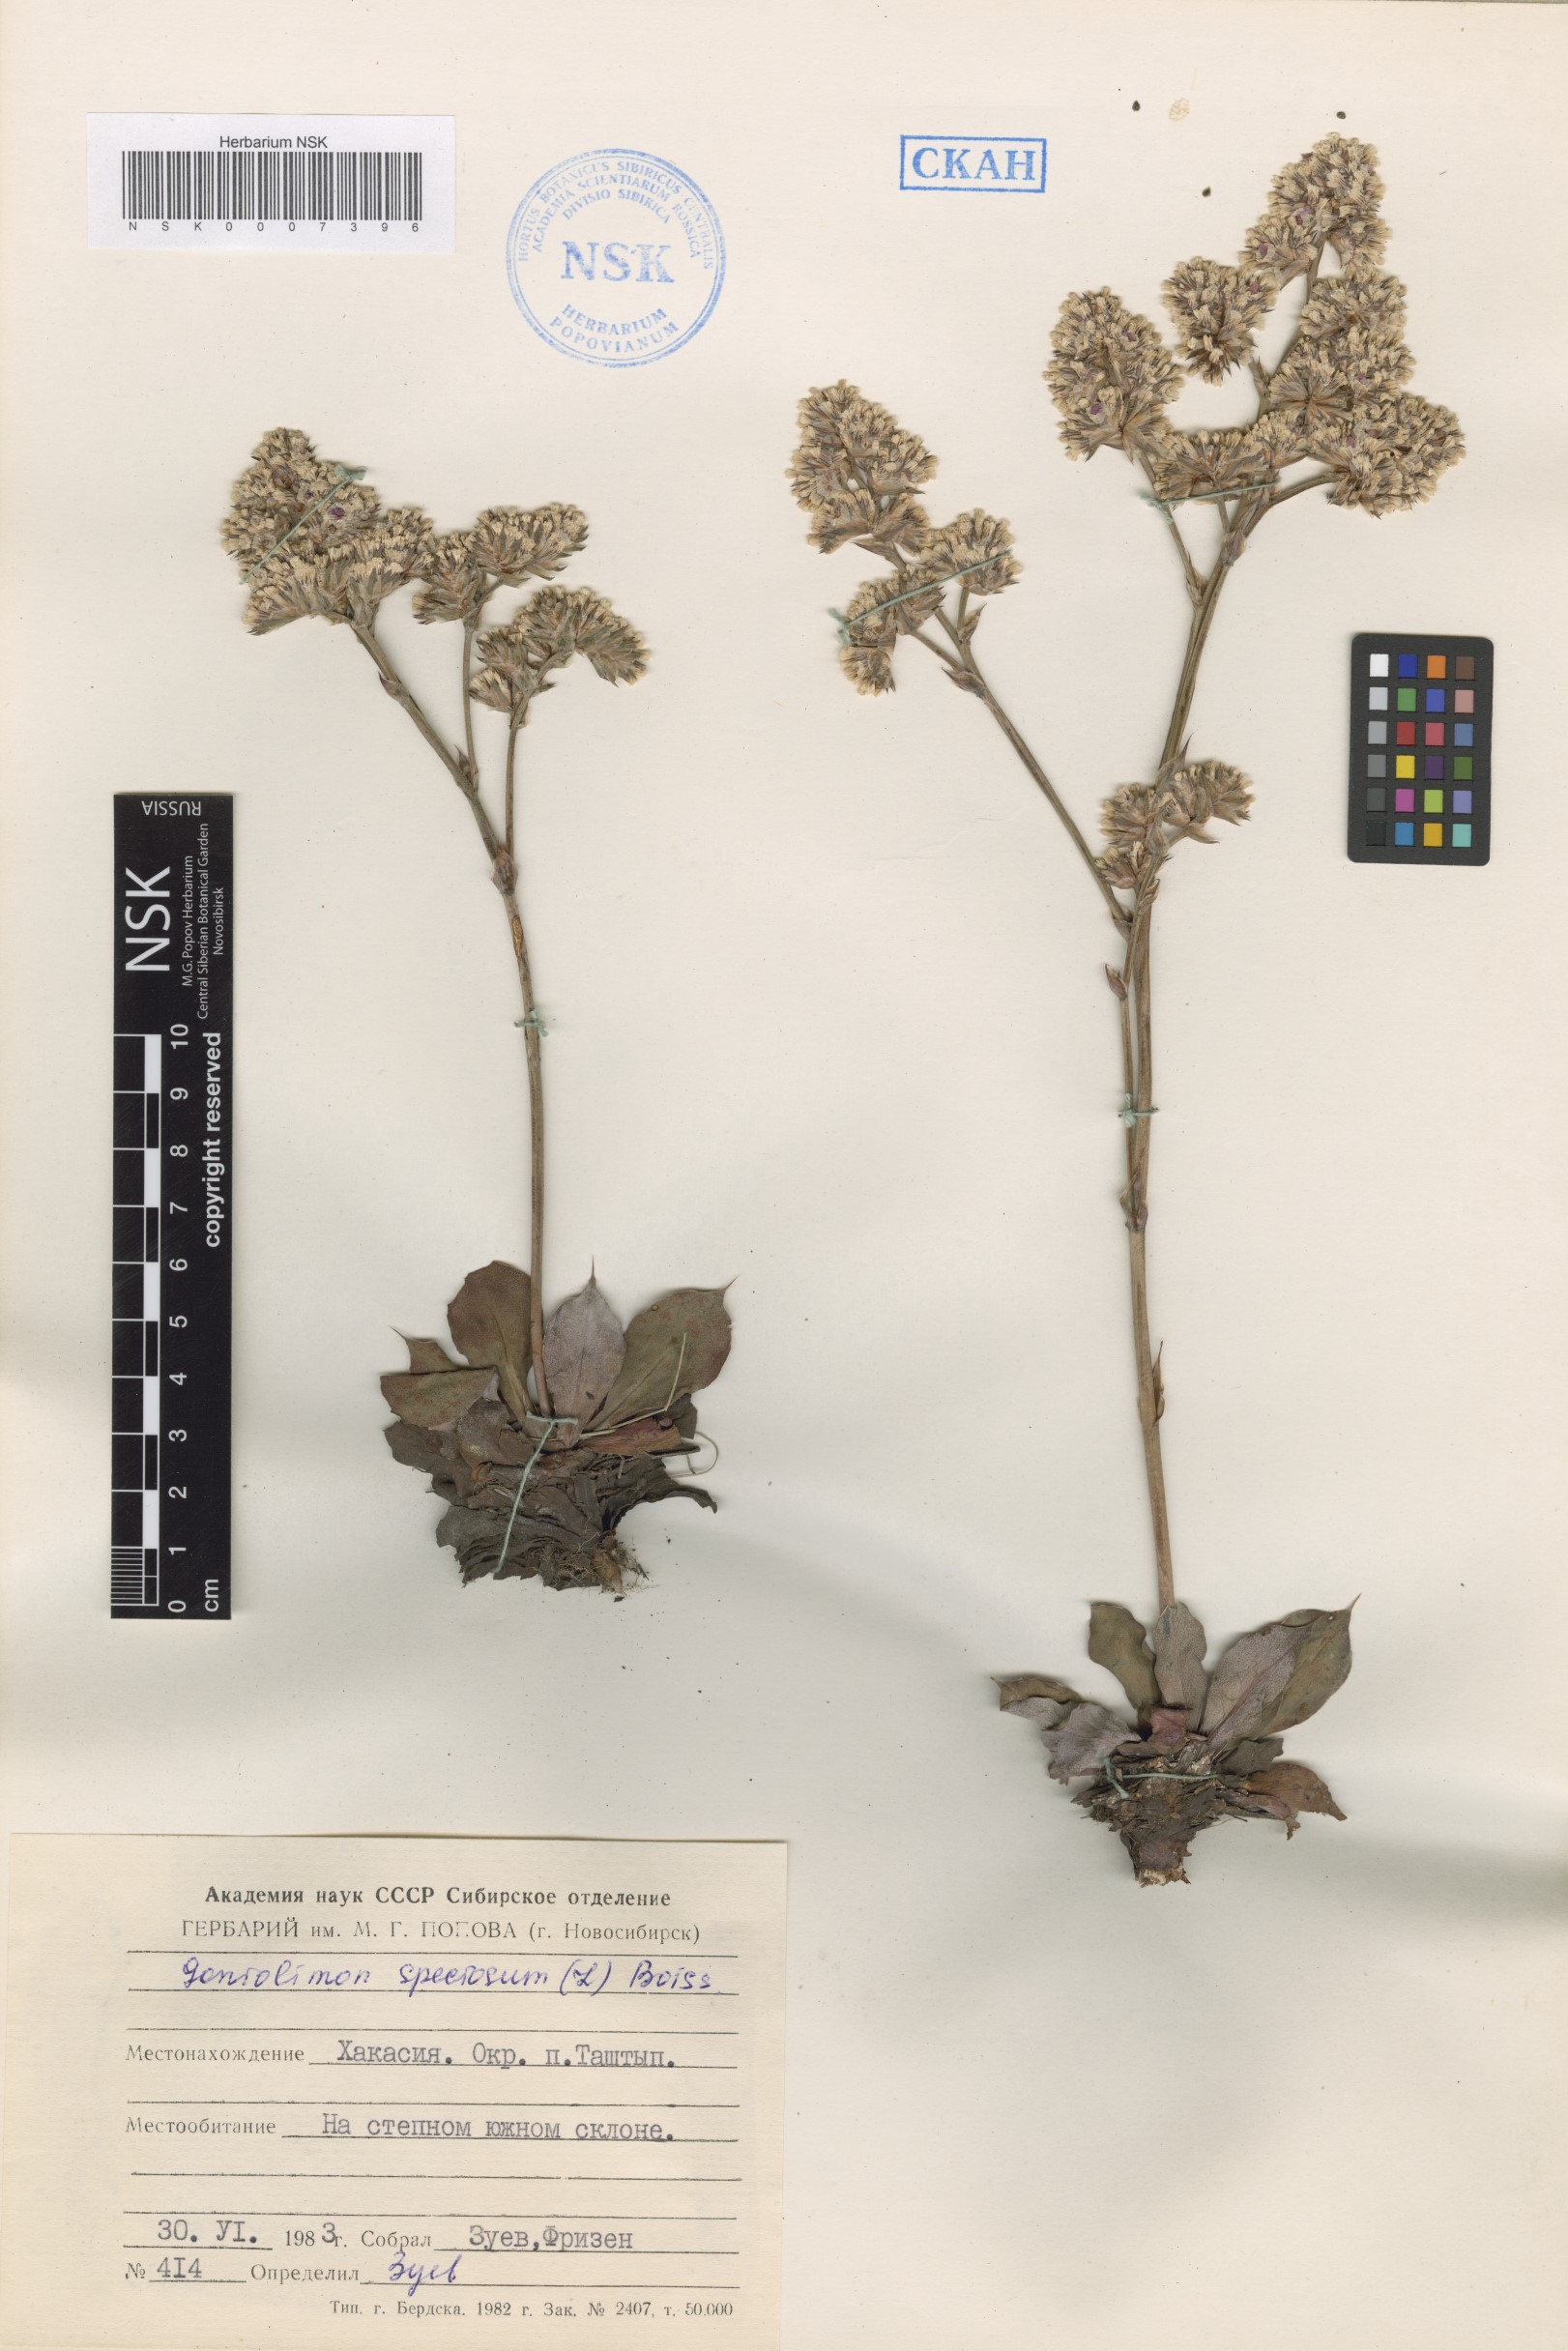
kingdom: Plantae
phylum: Tracheophyta
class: Magnoliopsida
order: Caryophyllales
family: Plumbaginaceae
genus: Goniolimon
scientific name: Goniolimon speciosum
